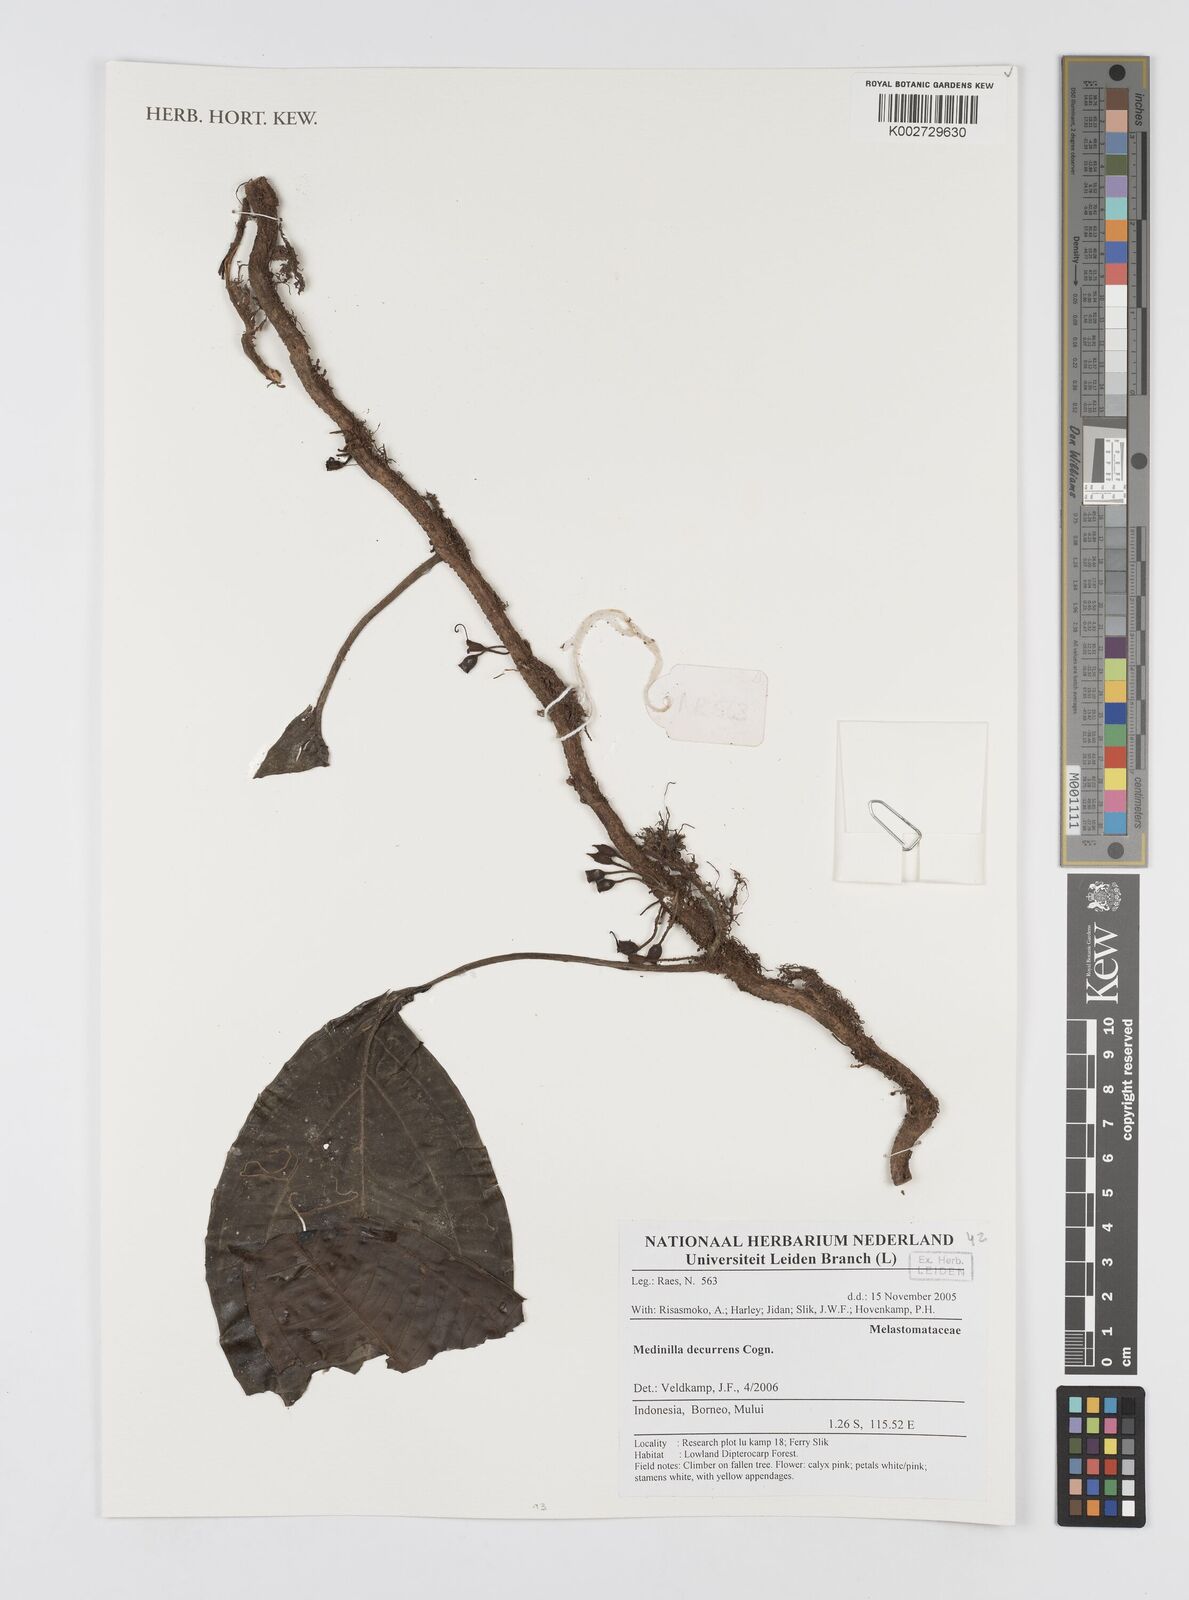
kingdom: Plantae
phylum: Tracheophyta
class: Magnoliopsida
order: Myrtales
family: Melastomataceae
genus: Heteroblemma
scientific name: Heteroblemma decurrens
